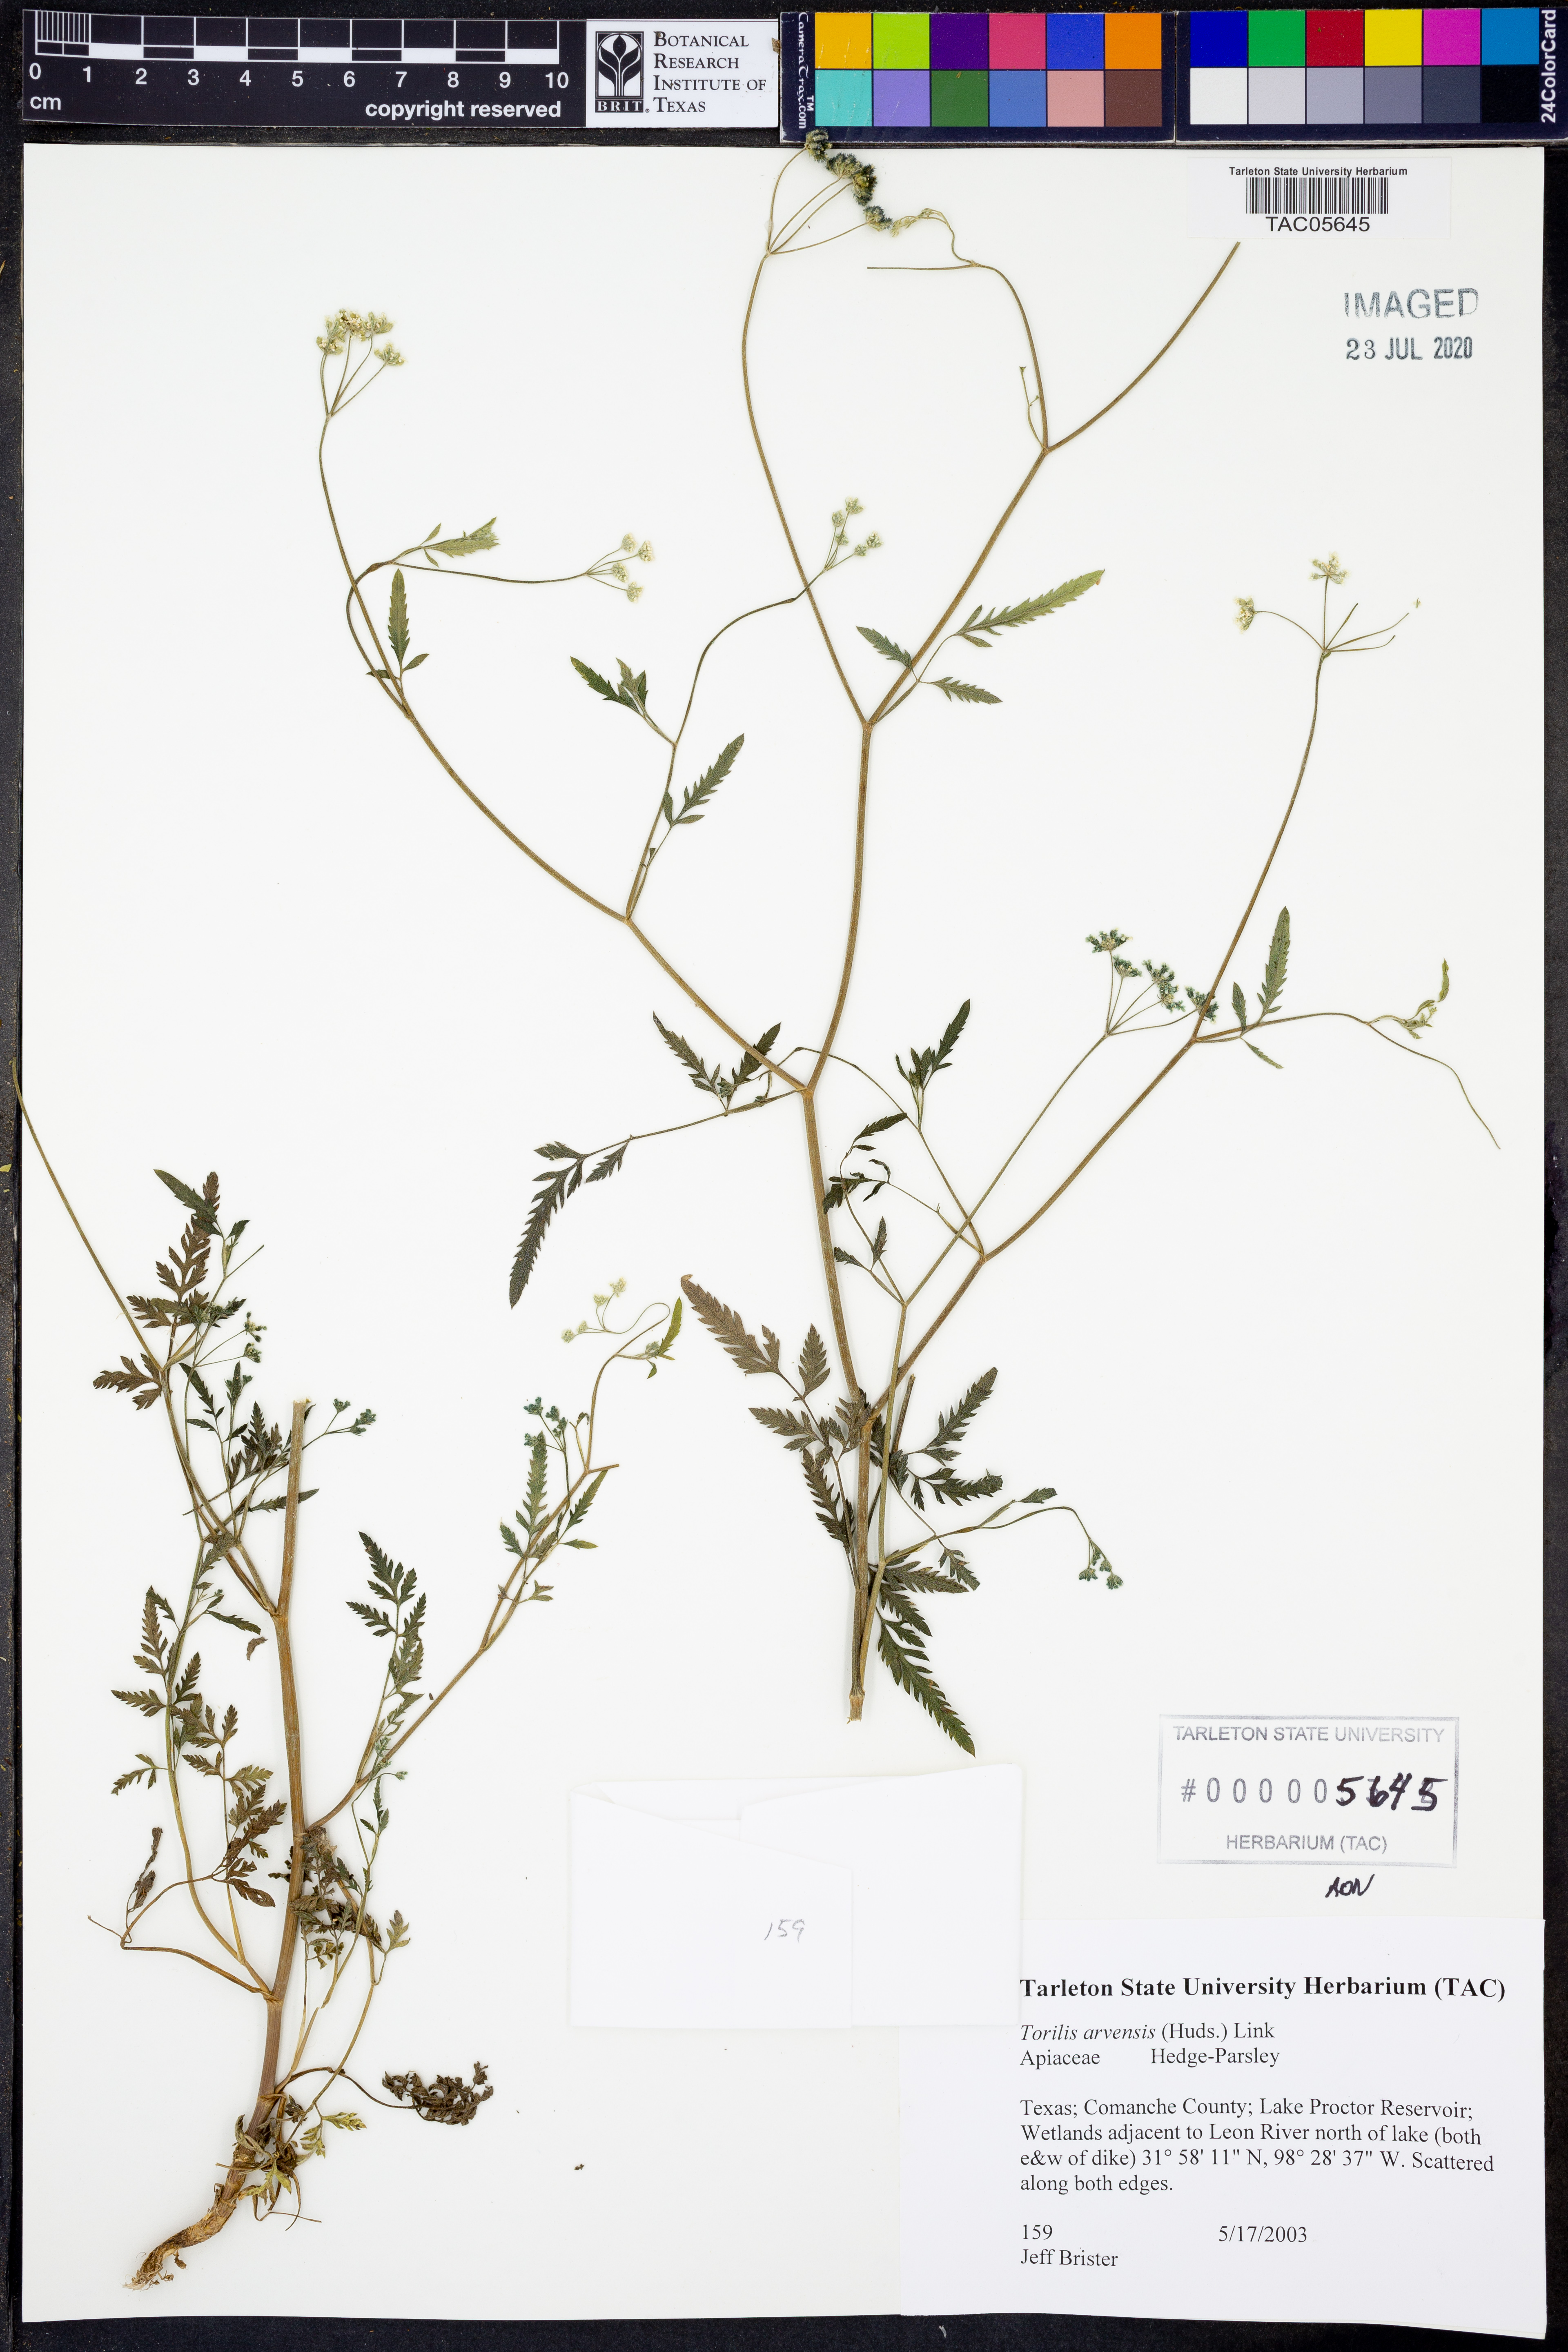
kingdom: Plantae
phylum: Tracheophyta
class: Magnoliopsida
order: Apiales
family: Apiaceae
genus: Torilis
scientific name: Torilis arvensis
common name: Spreading hedge-parsley
